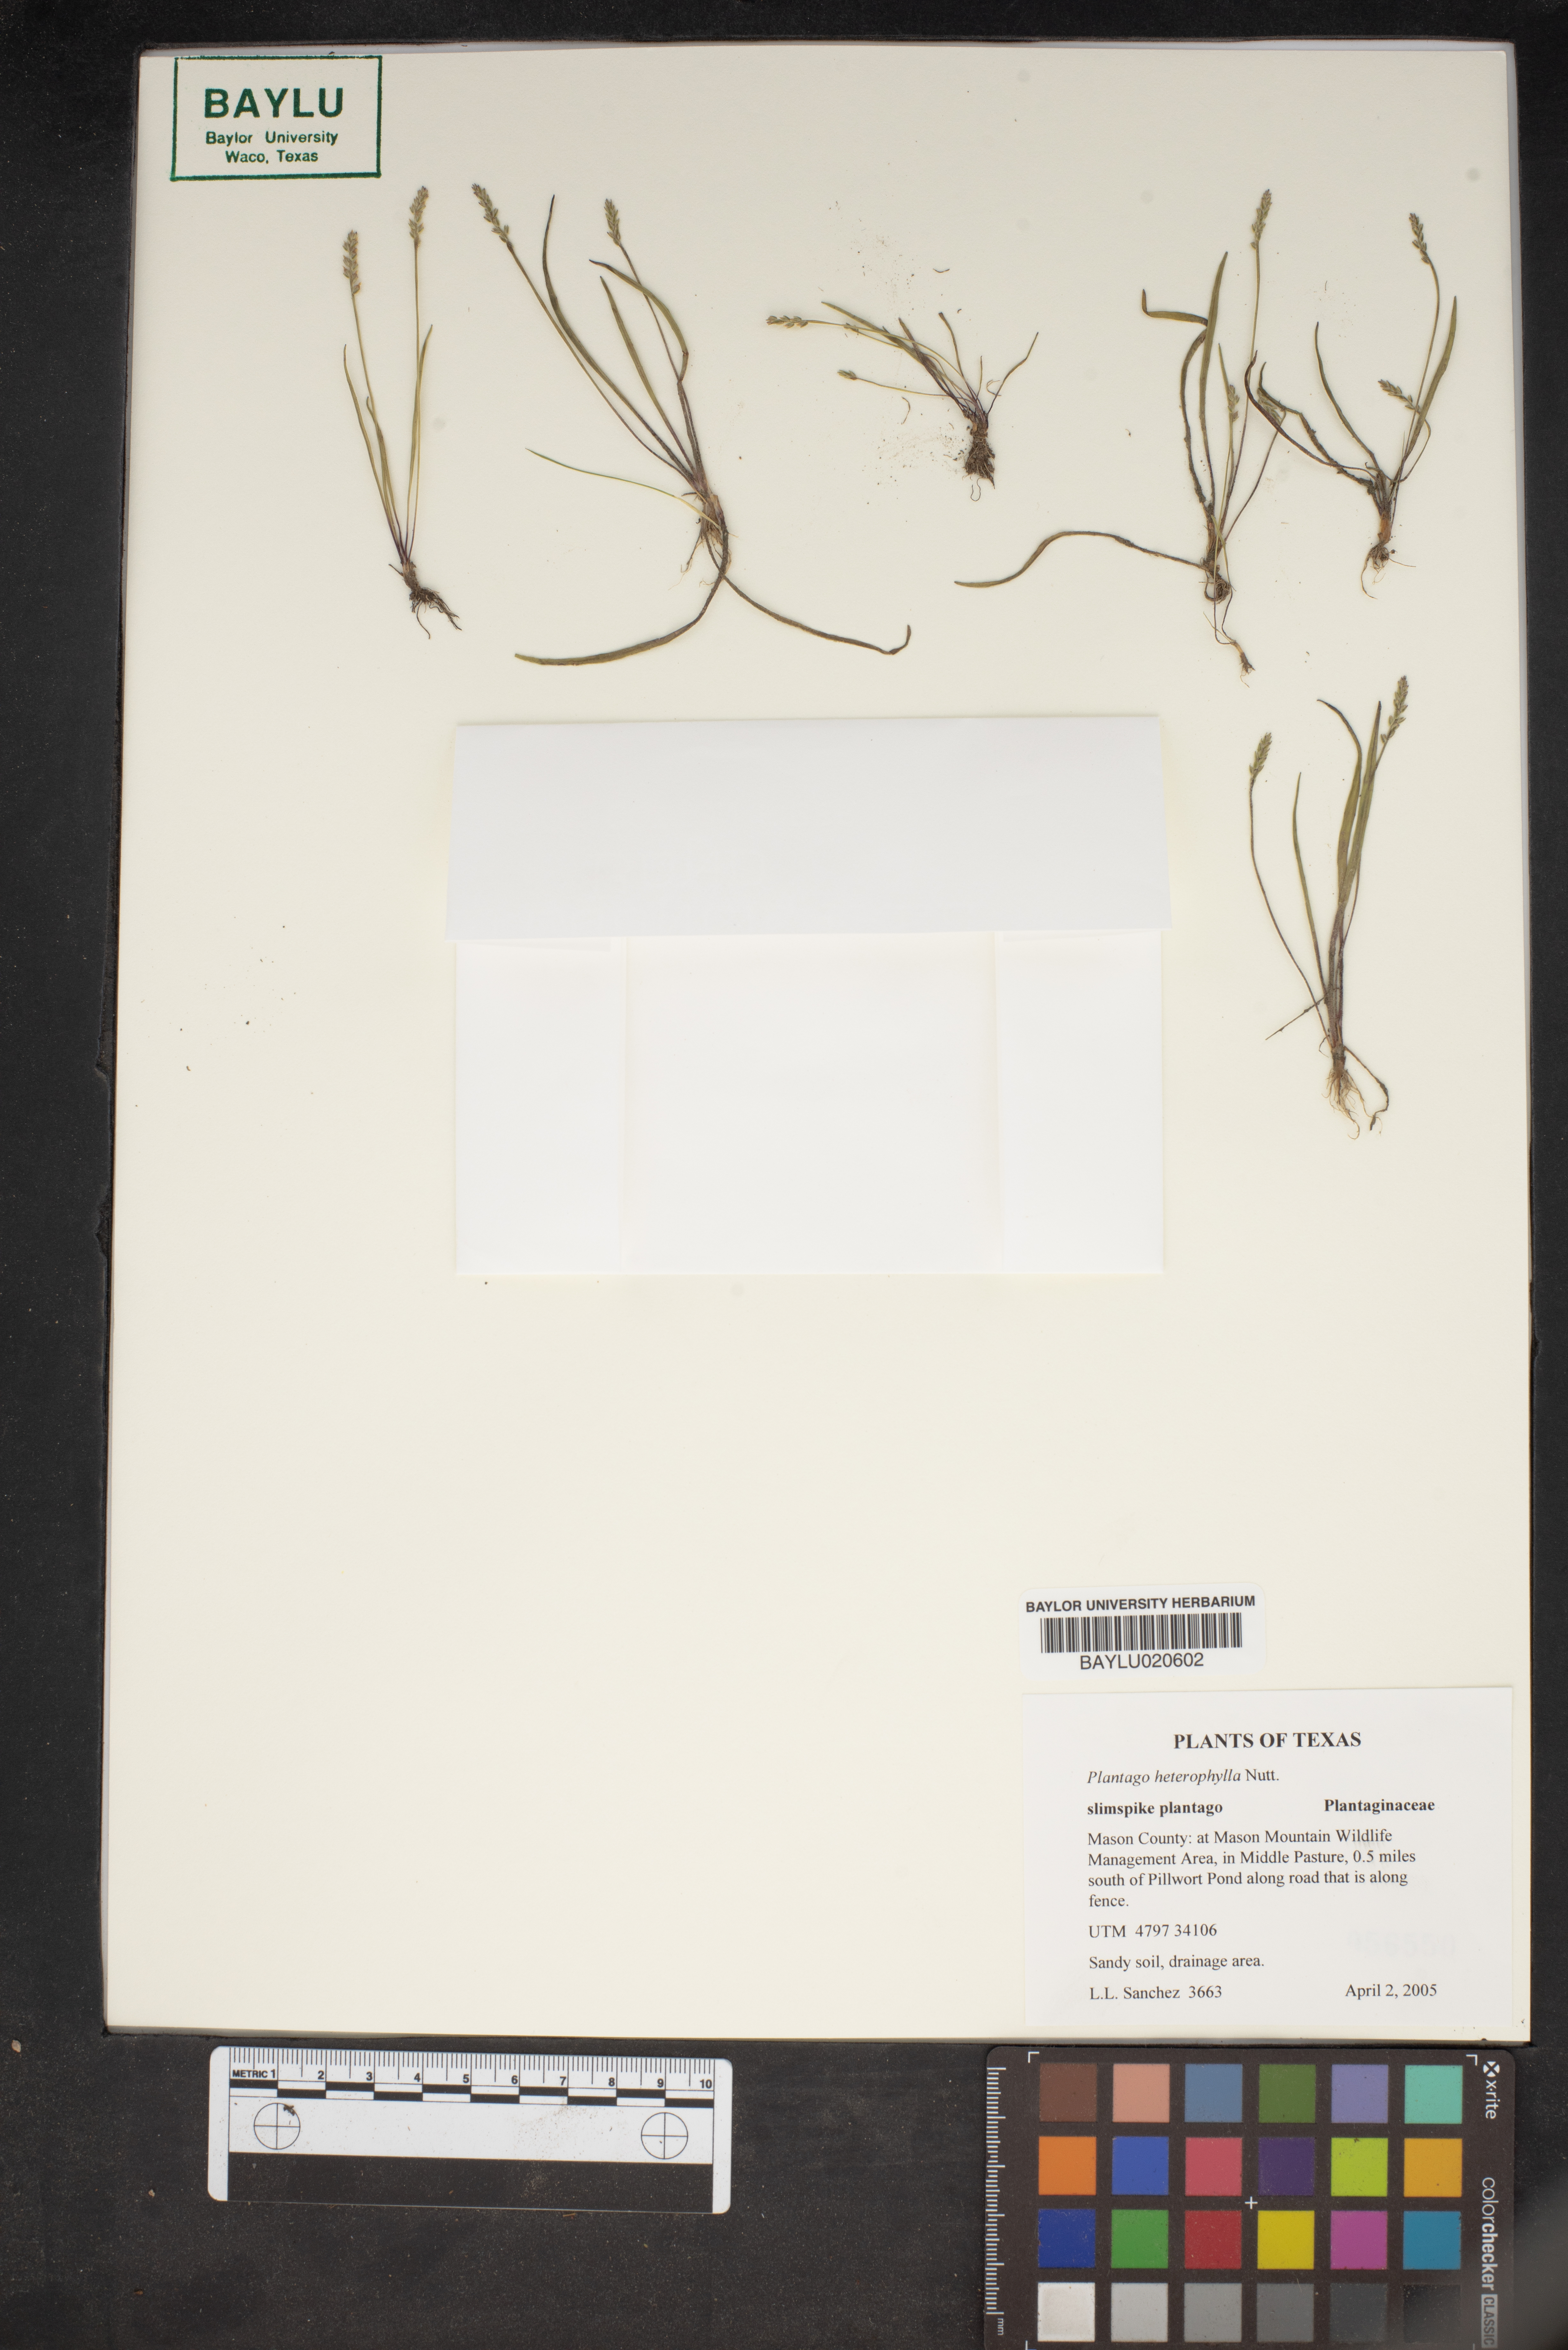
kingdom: Plantae
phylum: Tracheophyta
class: Magnoliopsida
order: Lamiales
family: Plantaginaceae
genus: Plantago
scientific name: Plantago heterophylla
